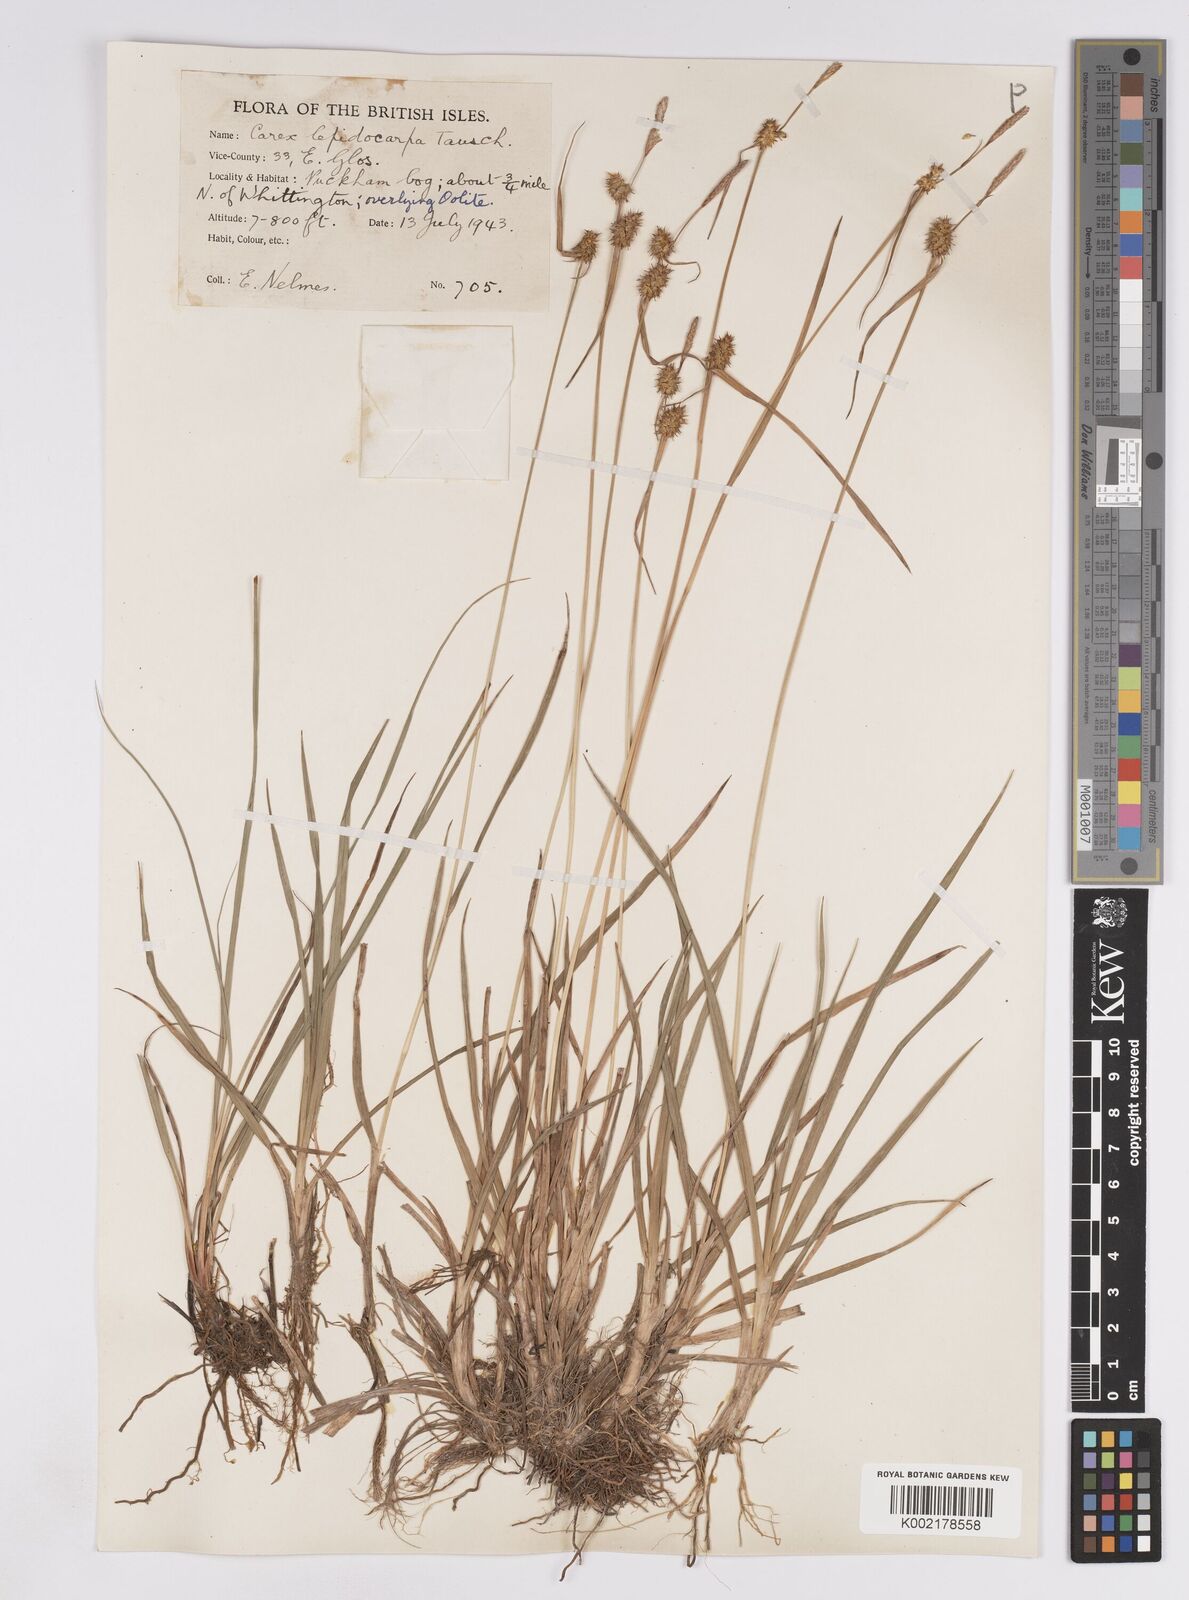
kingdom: Plantae
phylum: Tracheophyta
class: Liliopsida
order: Poales
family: Cyperaceae
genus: Carex
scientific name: Carex lepidocarpa
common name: Long-stalked yellow-sedge
